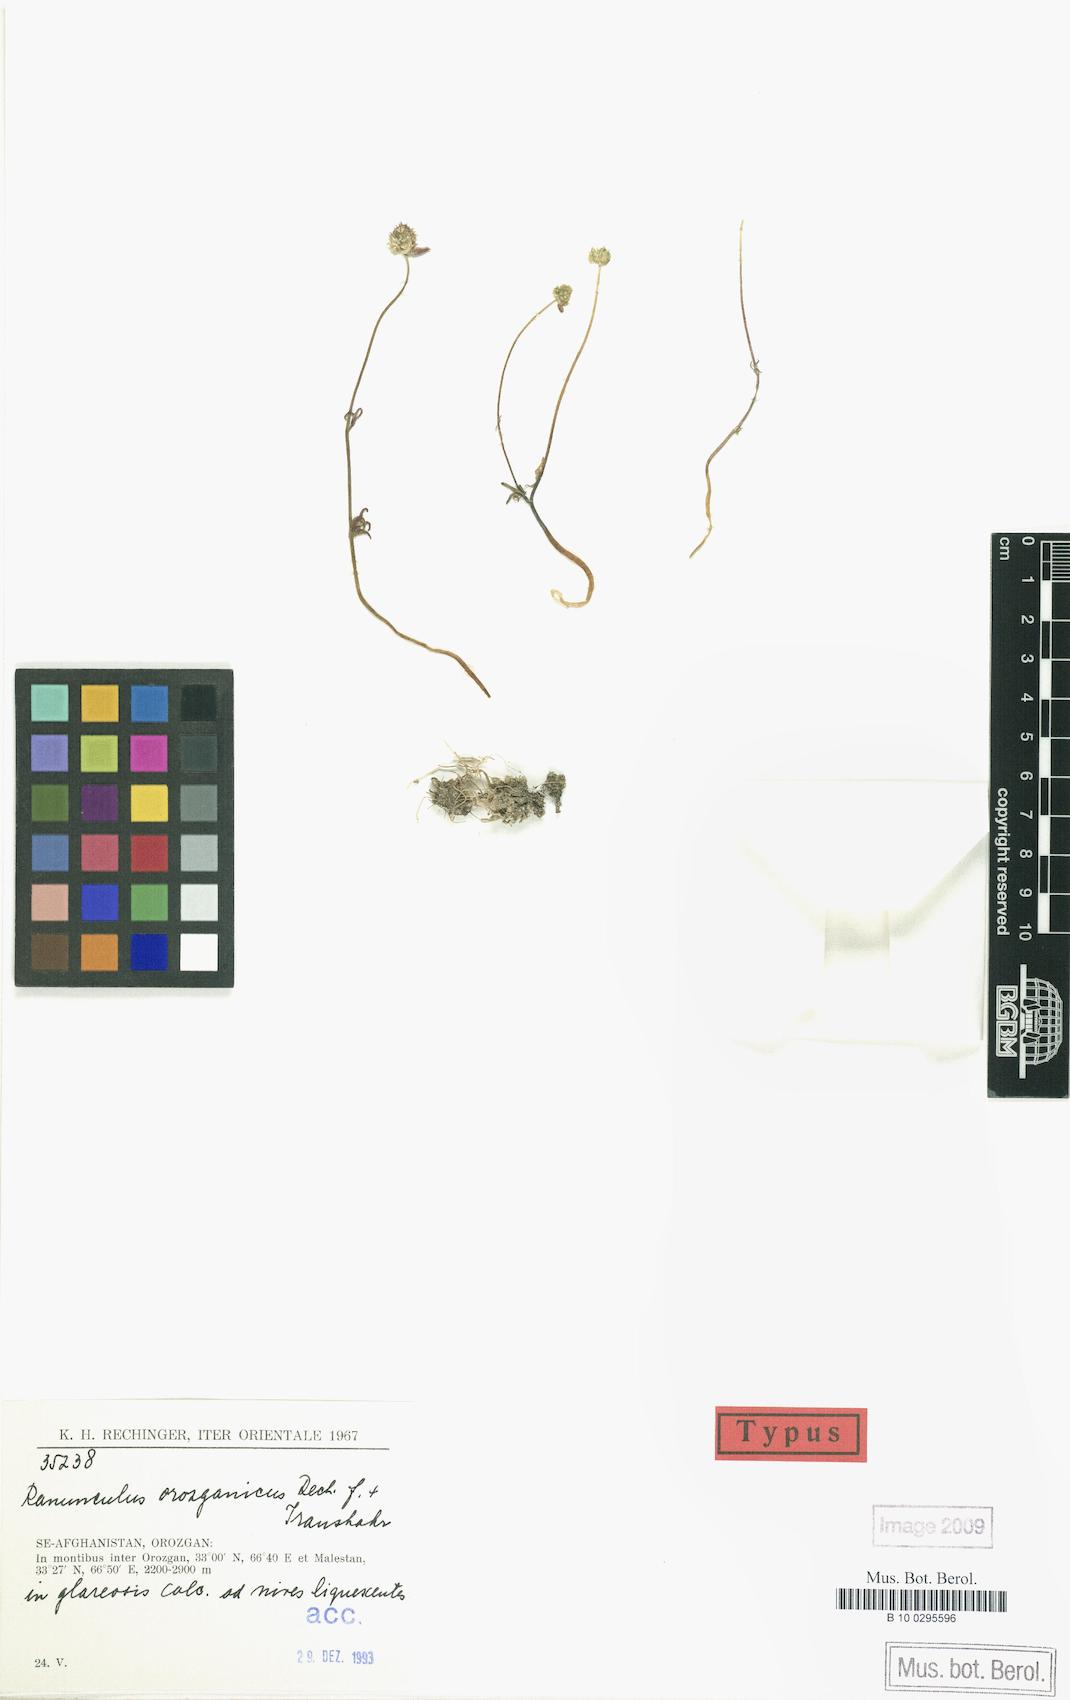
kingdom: Plantae
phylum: Tracheophyta
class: Magnoliopsida
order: Ranunculales
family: Ranunculaceae
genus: Ranunculus
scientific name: Ranunculus orozganicus
